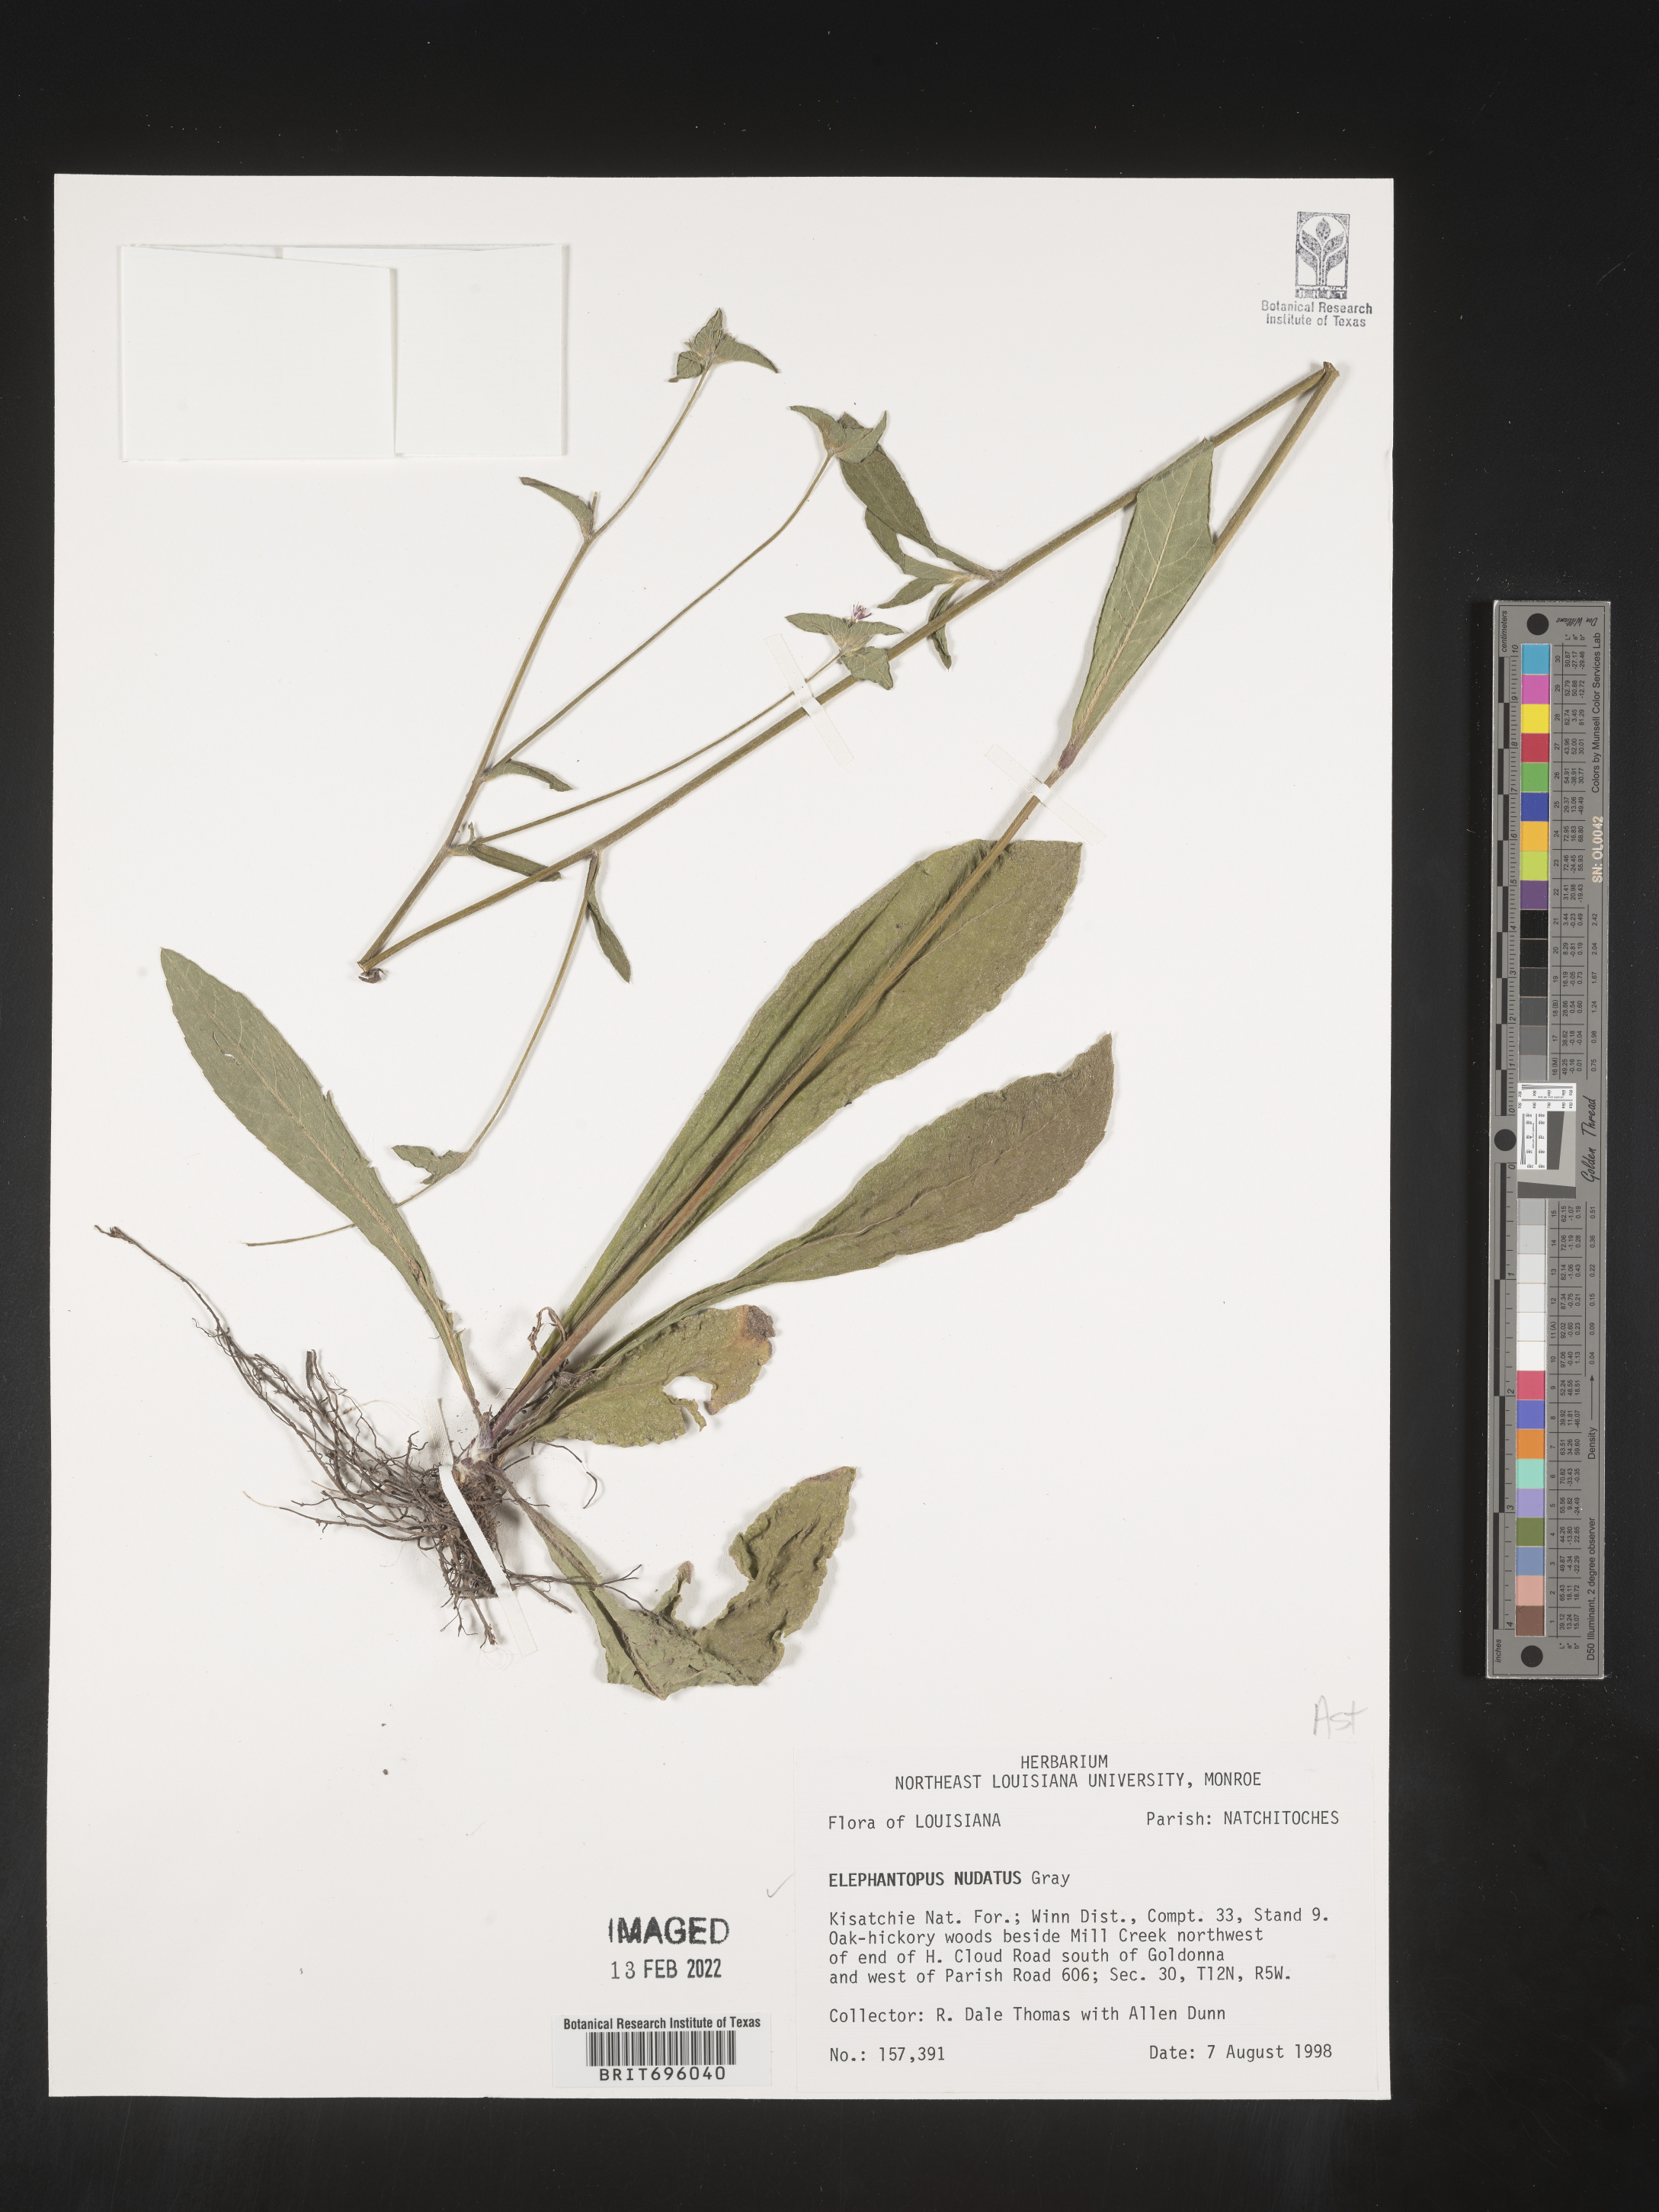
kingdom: Plantae
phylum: Tracheophyta
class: Magnoliopsida
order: Asterales
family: Asteraceae
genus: Elephantopus
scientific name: Elephantopus nudatus
